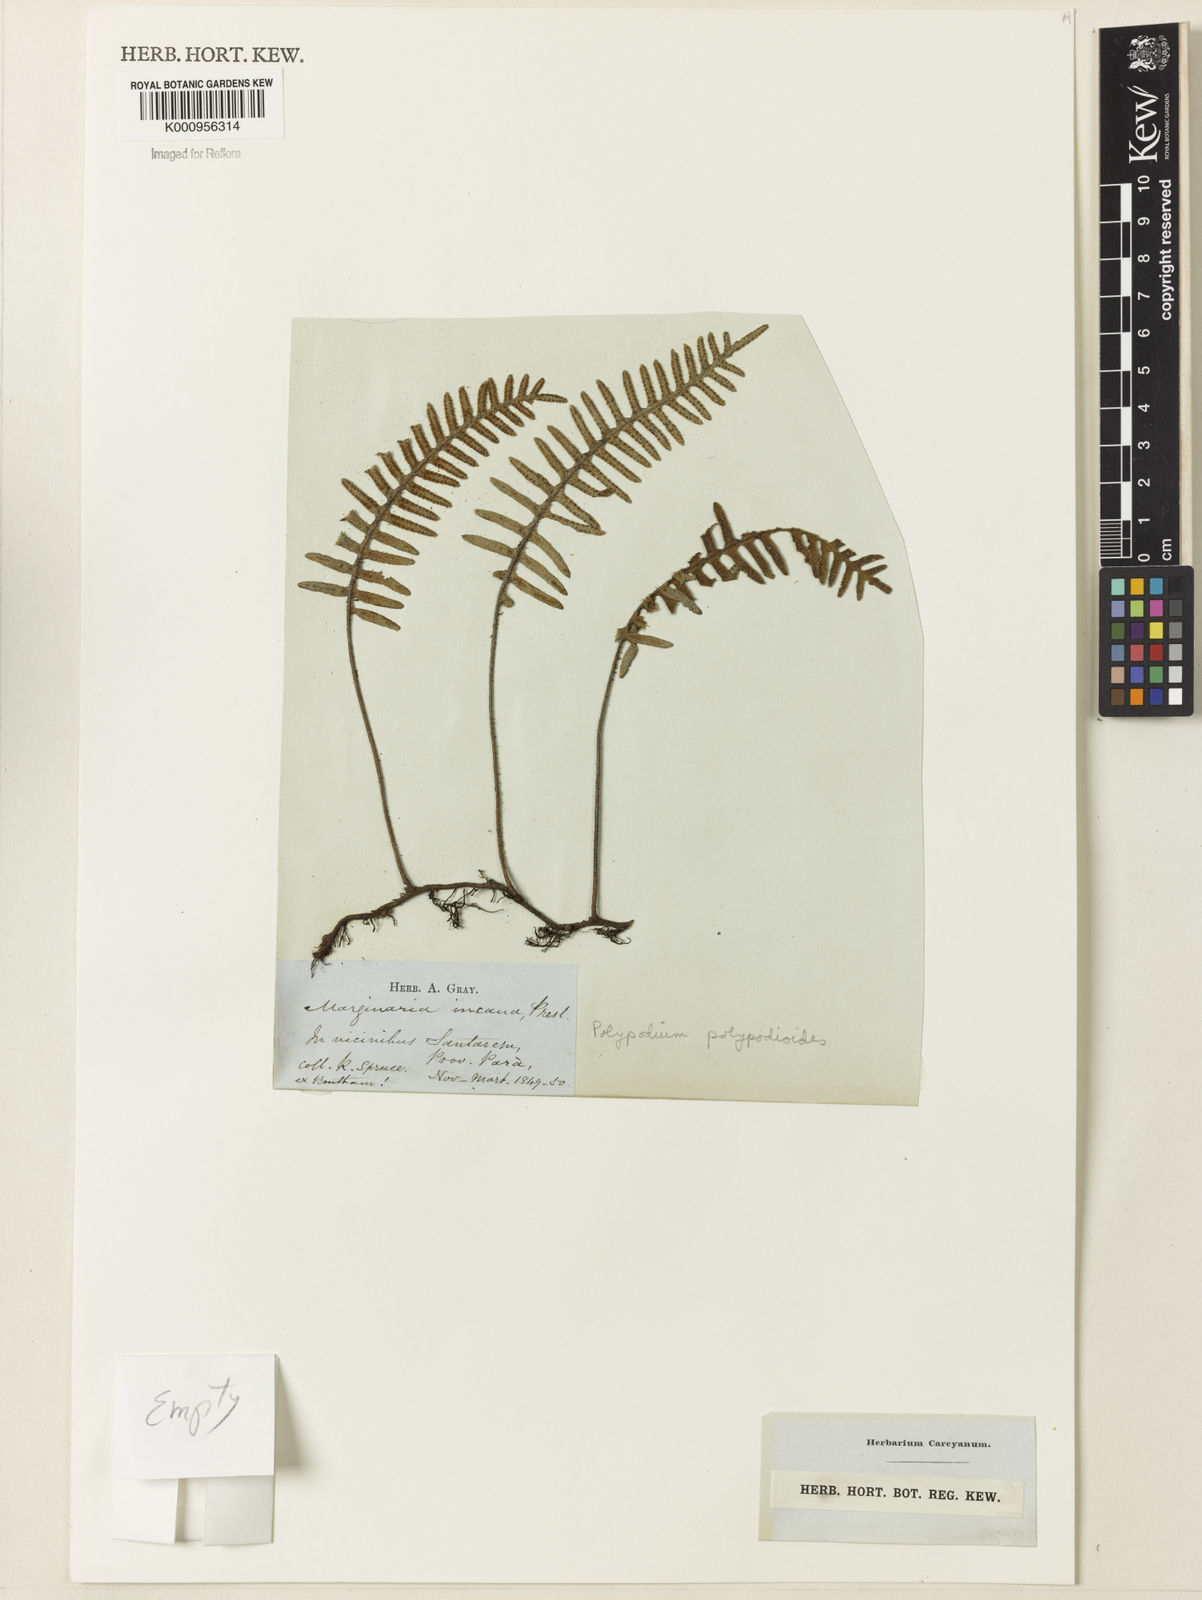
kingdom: Plantae
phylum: Tracheophyta
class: Polypodiopsida
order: Polypodiales
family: Polypodiaceae
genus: Pleopeltis
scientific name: Pleopeltis burchellii
